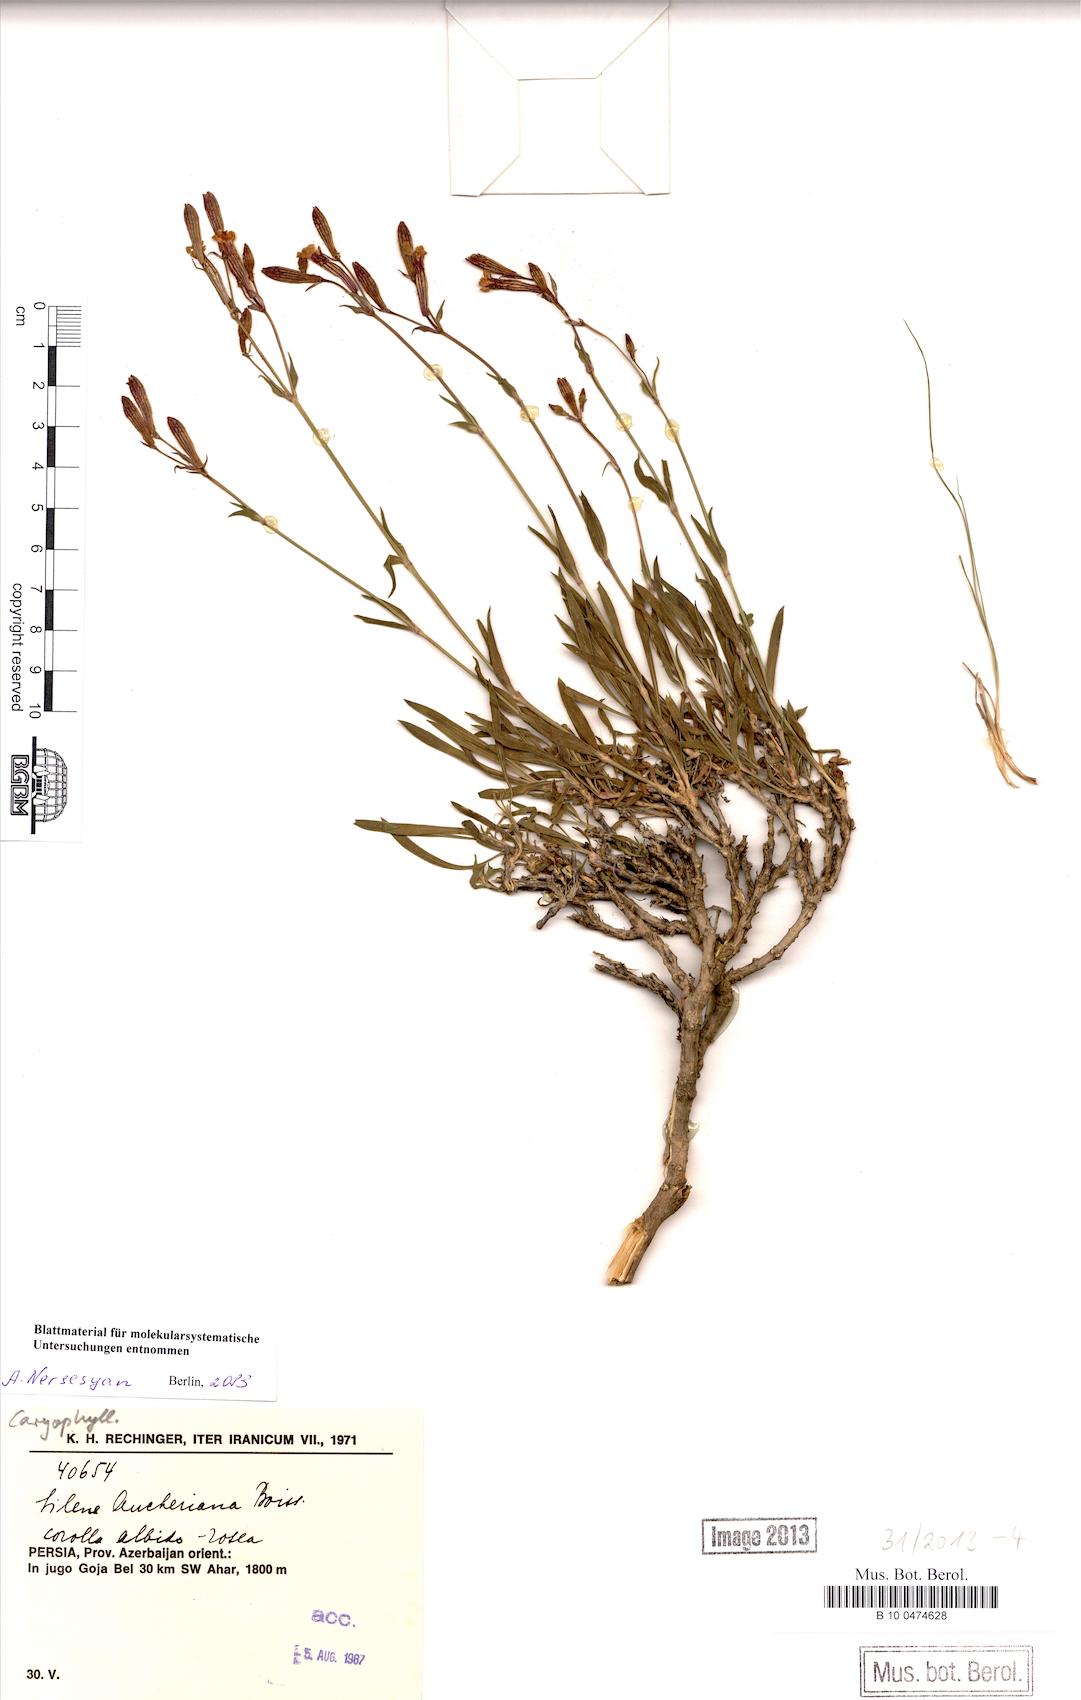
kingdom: Plantae
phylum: Tracheophyta
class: Magnoliopsida
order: Caryophyllales
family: Caryophyllaceae
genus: Silene
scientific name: Silene aucheriana
